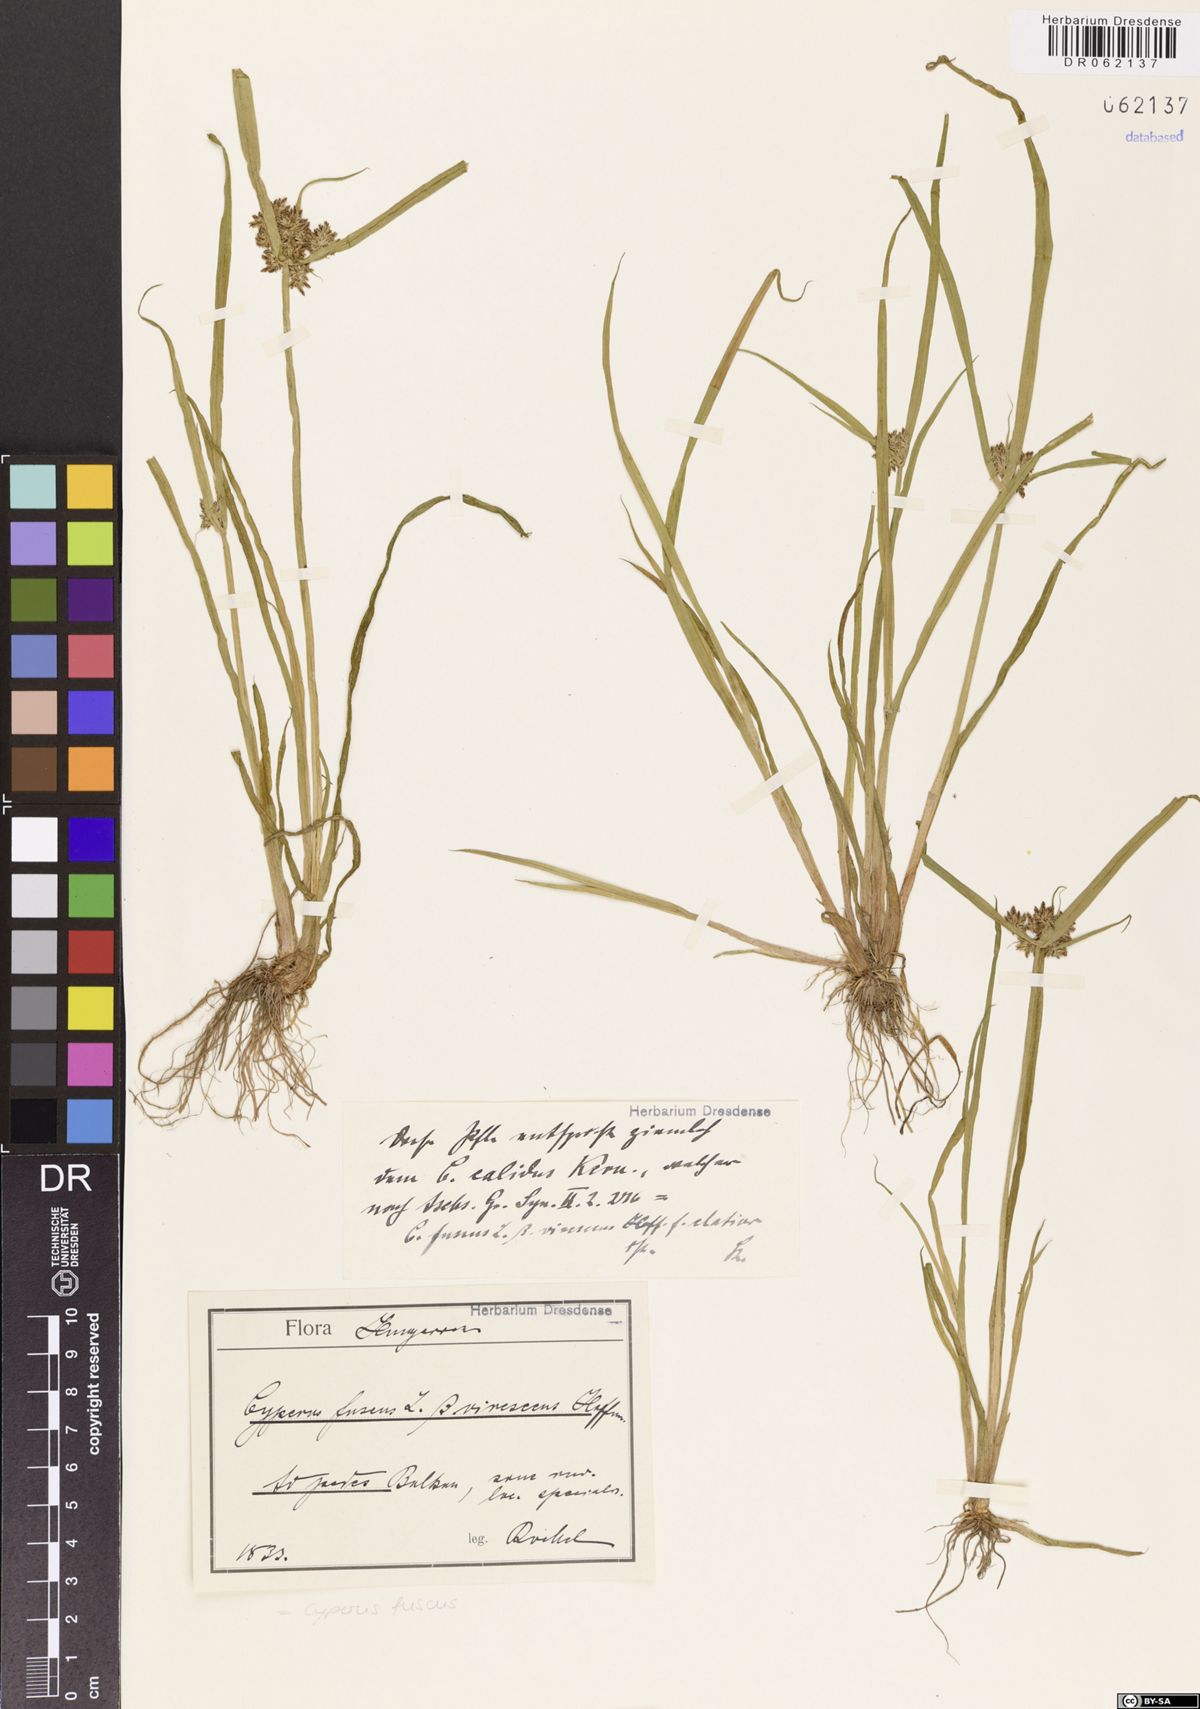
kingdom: Plantae
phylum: Tracheophyta
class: Liliopsida
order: Poales
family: Cyperaceae
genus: Cyperus
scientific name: Cyperus fuscus
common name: Brown galingale
